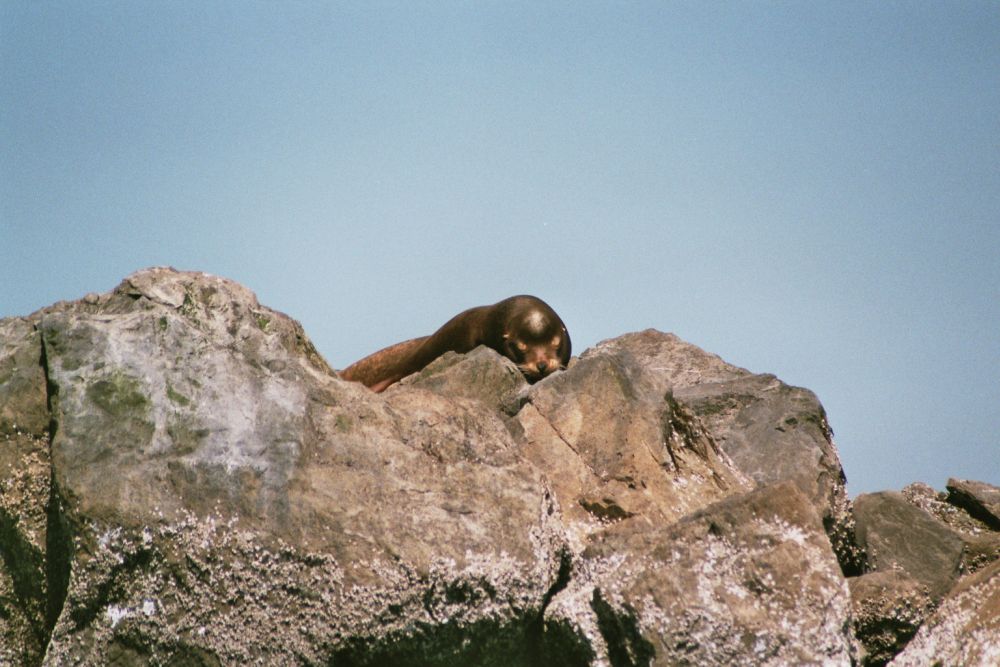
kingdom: Animalia
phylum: Chordata
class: Mammalia
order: Carnivora
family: Otariidae
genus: Zalophus
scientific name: Zalophus californianus
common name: California sea lion
